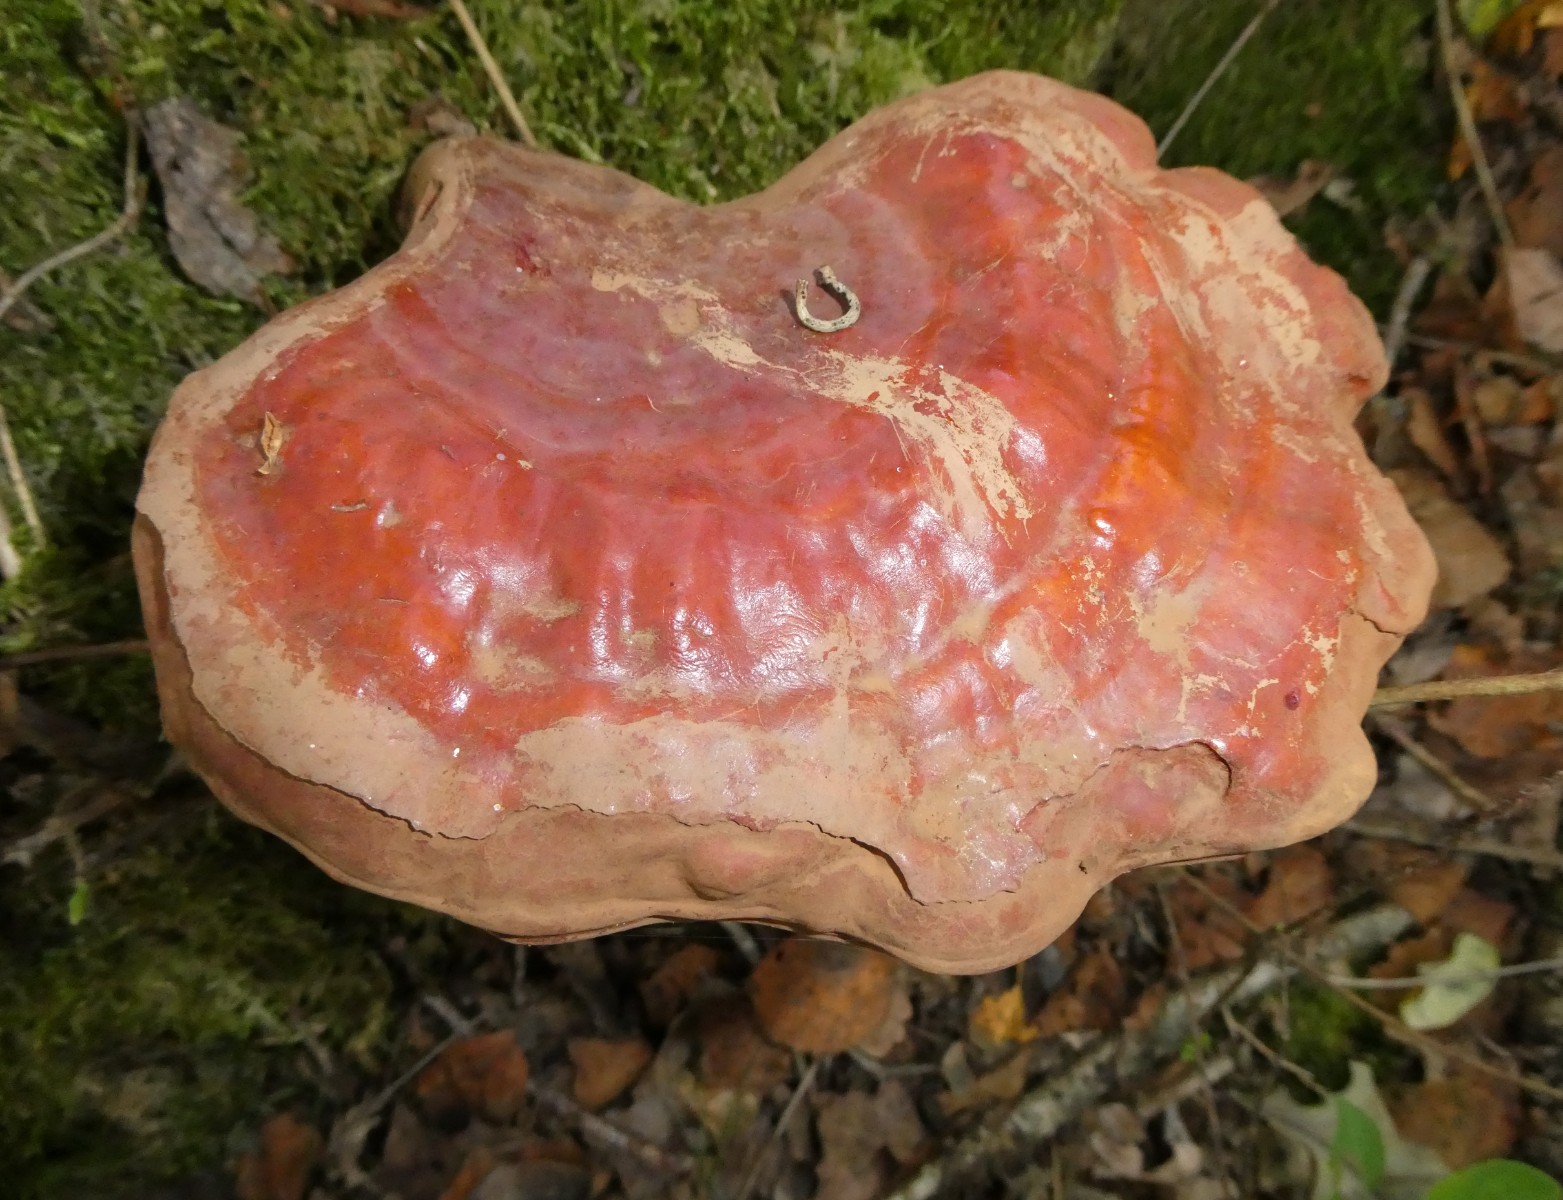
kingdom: Fungi
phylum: Basidiomycota
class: Agaricomycetes
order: Polyporales
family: Polyporaceae
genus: Ganoderma
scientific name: Ganoderma lucidum
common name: skinnende lakporesvamp
